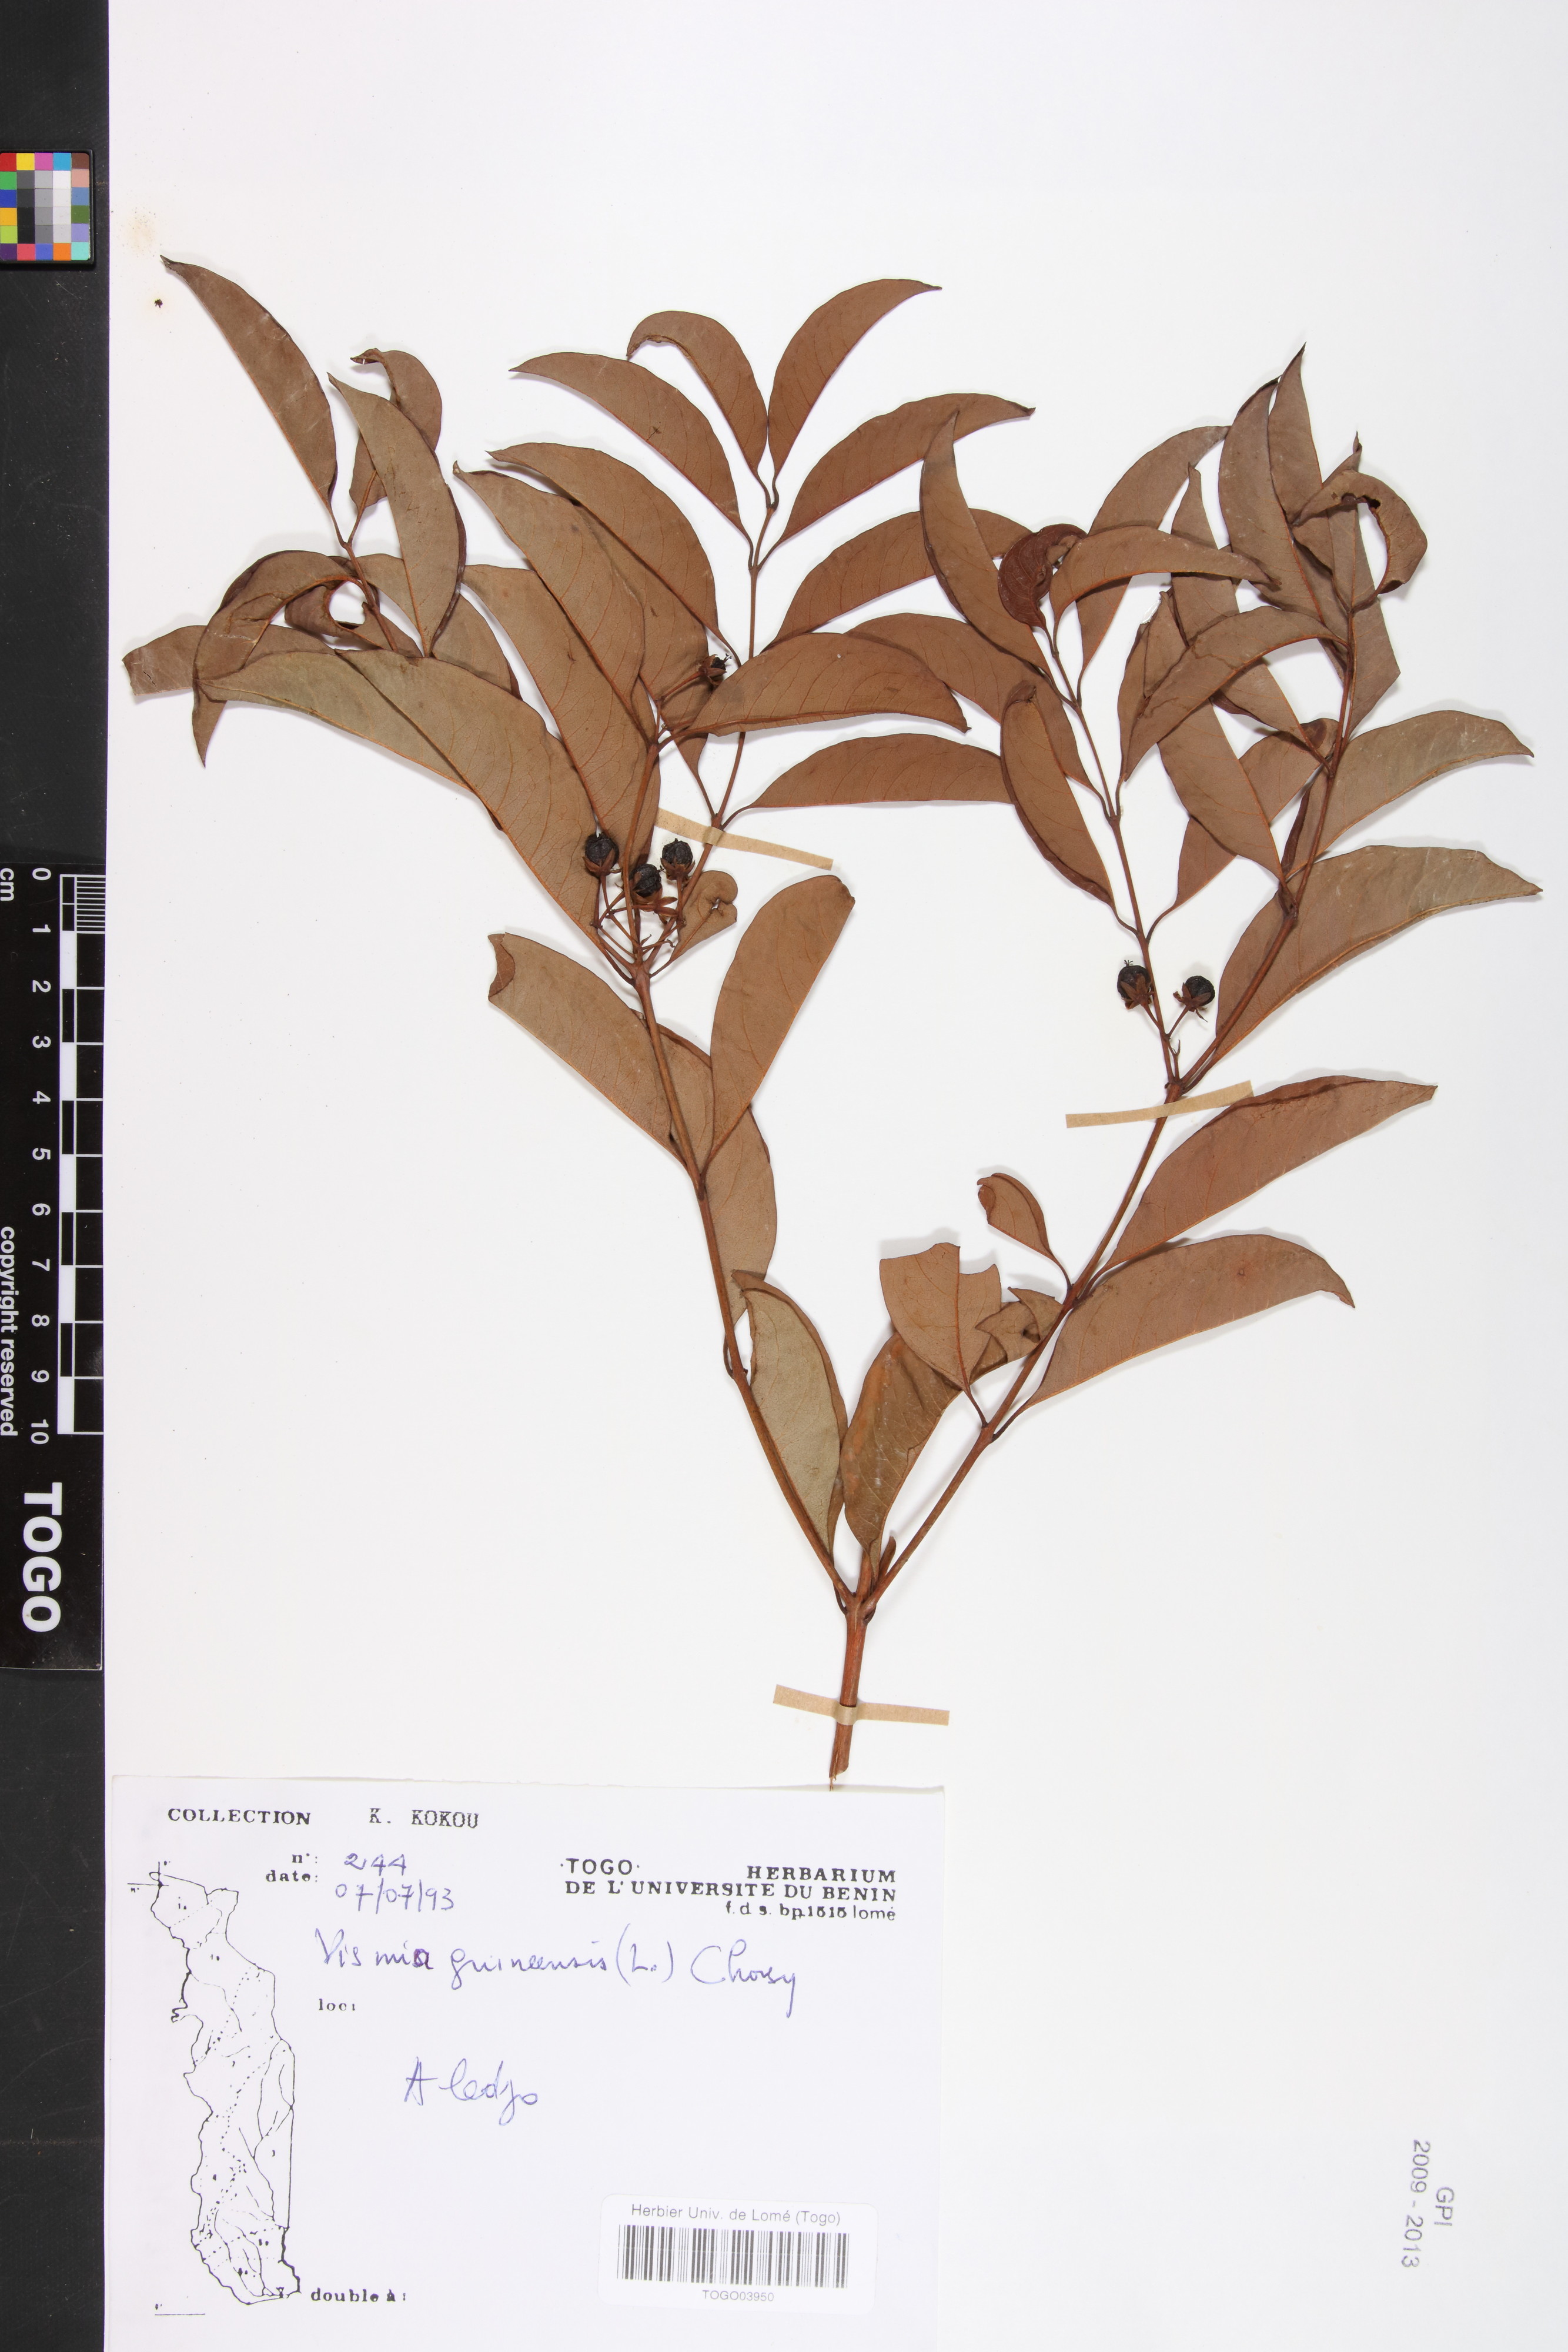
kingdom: Plantae
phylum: Tracheophyta
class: Magnoliopsida
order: Malpighiales
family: Hypericaceae
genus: Psorospermum
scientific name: Psorospermum guineense
